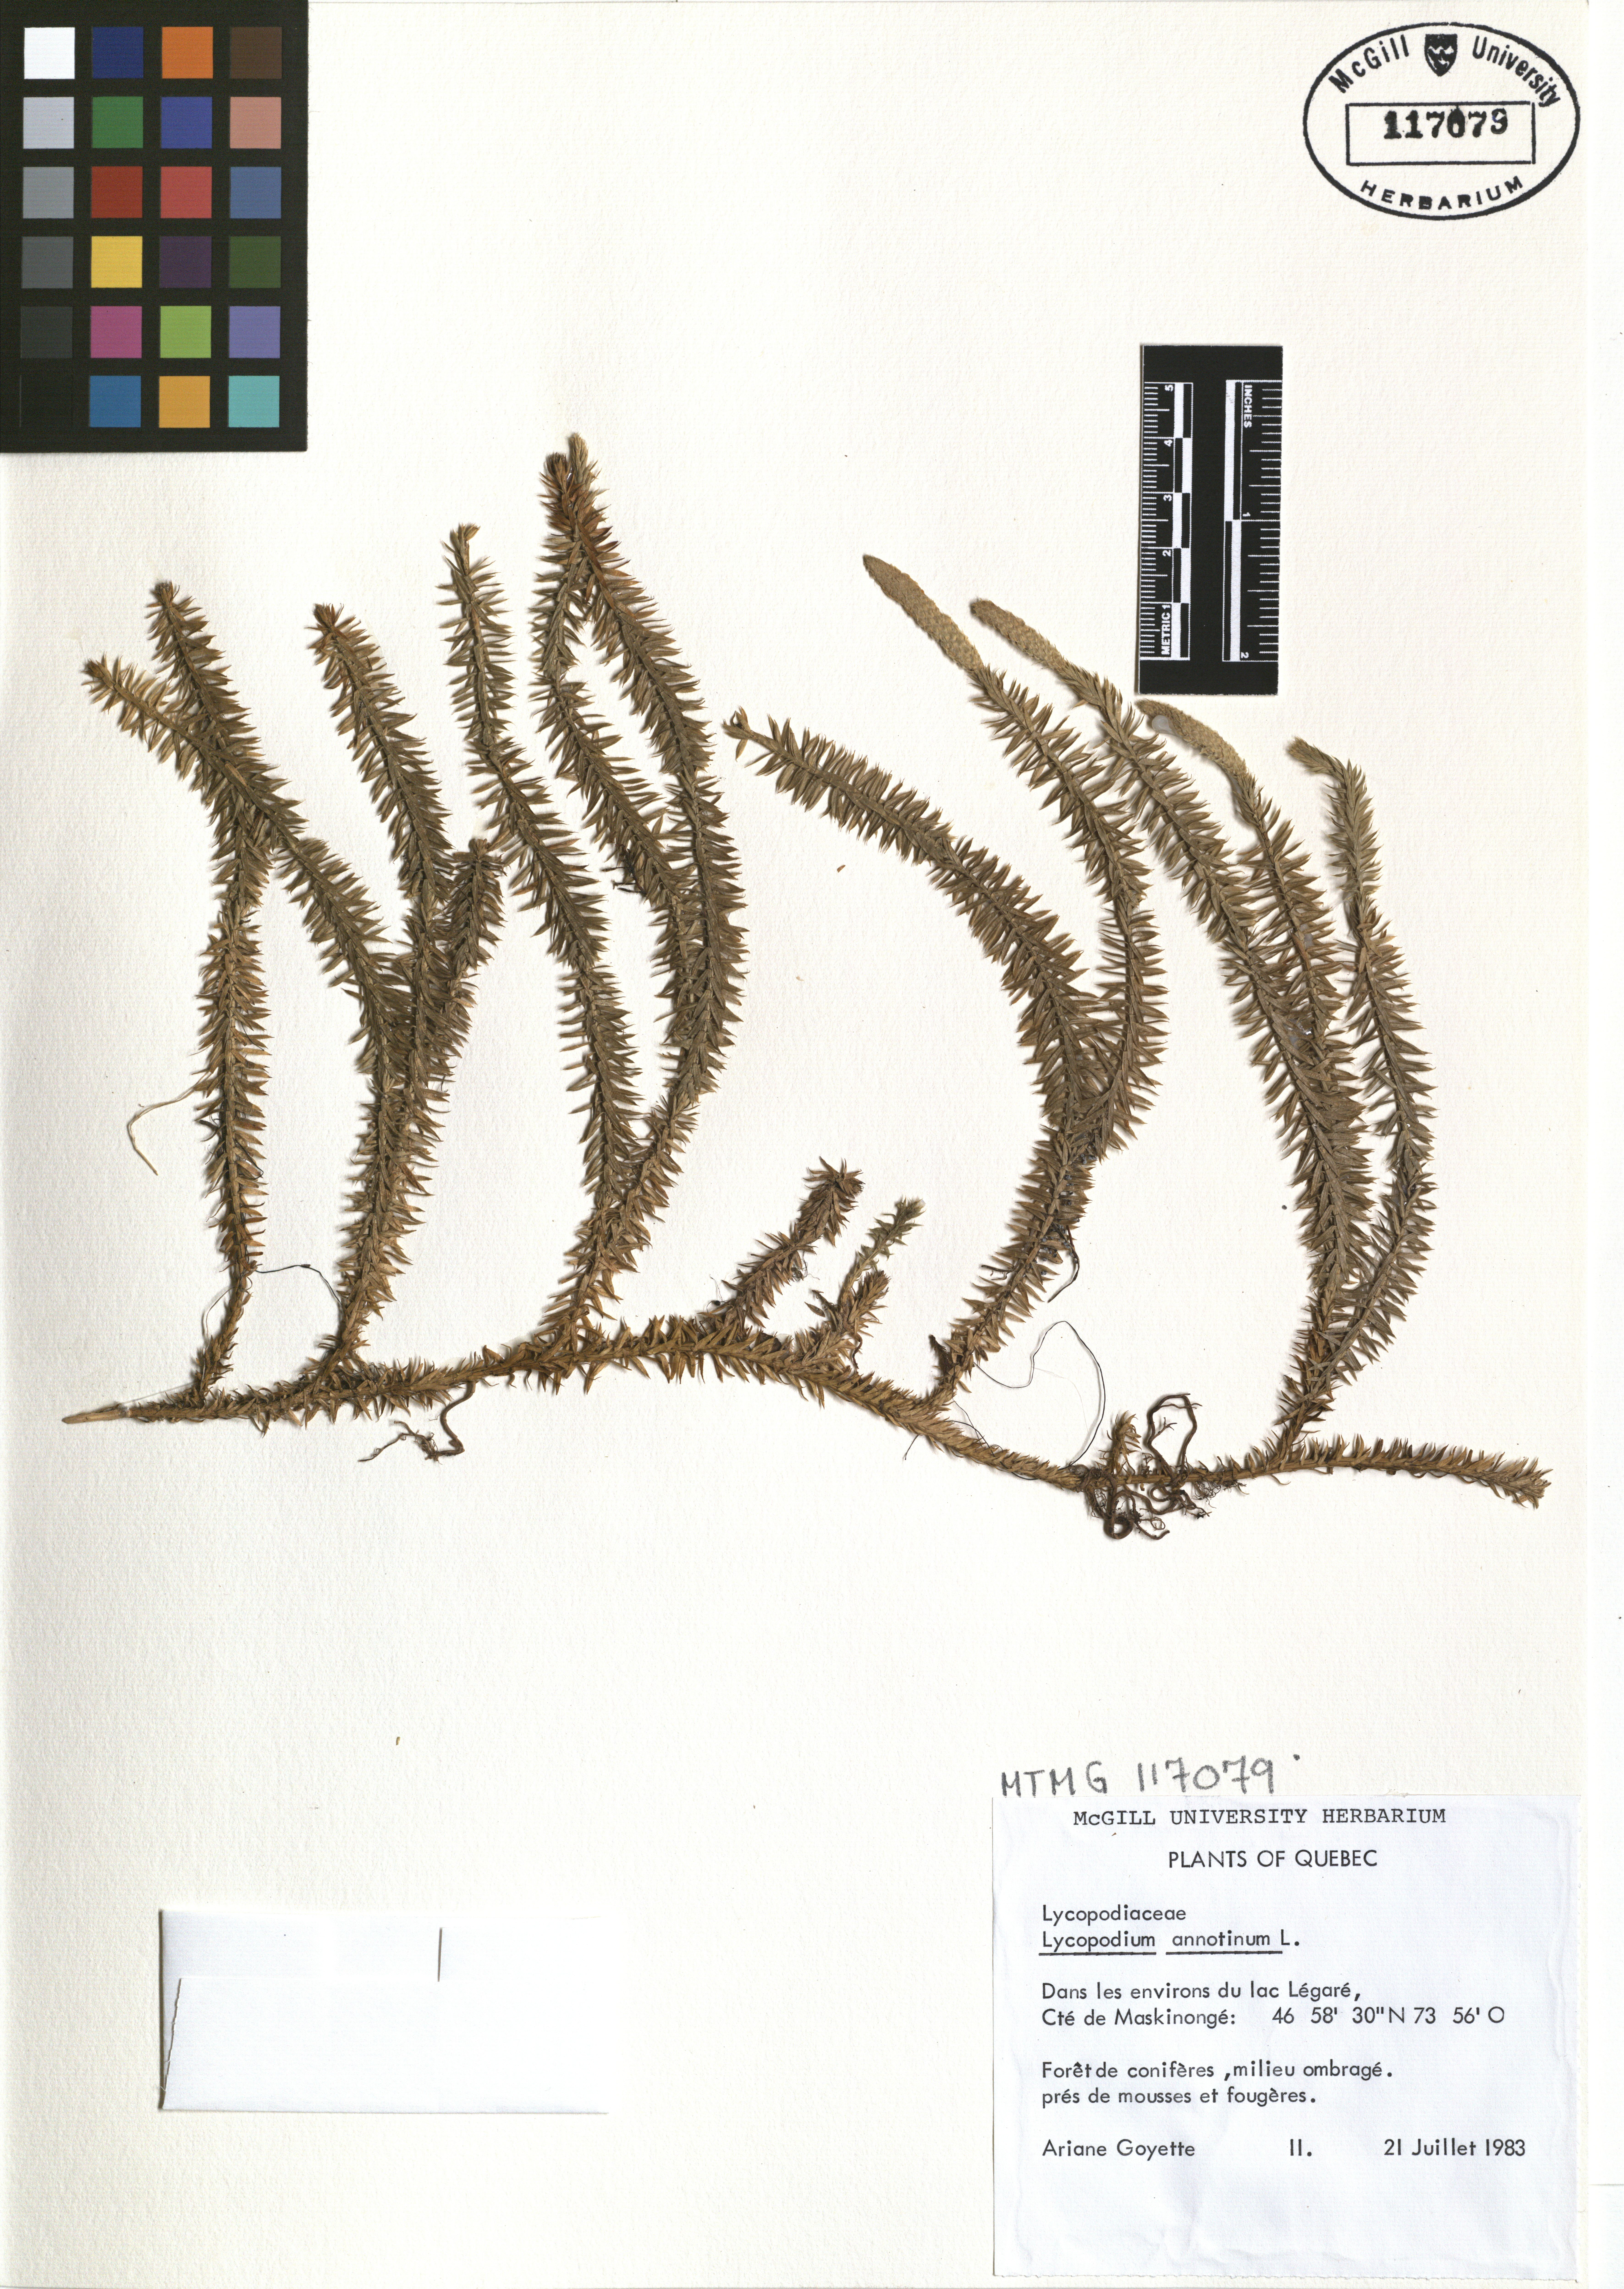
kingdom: Plantae
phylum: Tracheophyta
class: Lycopodiopsida
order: Lycopodiales
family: Lycopodiaceae
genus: Spinulum
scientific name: Spinulum annotinum
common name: Interrupted club-moss
